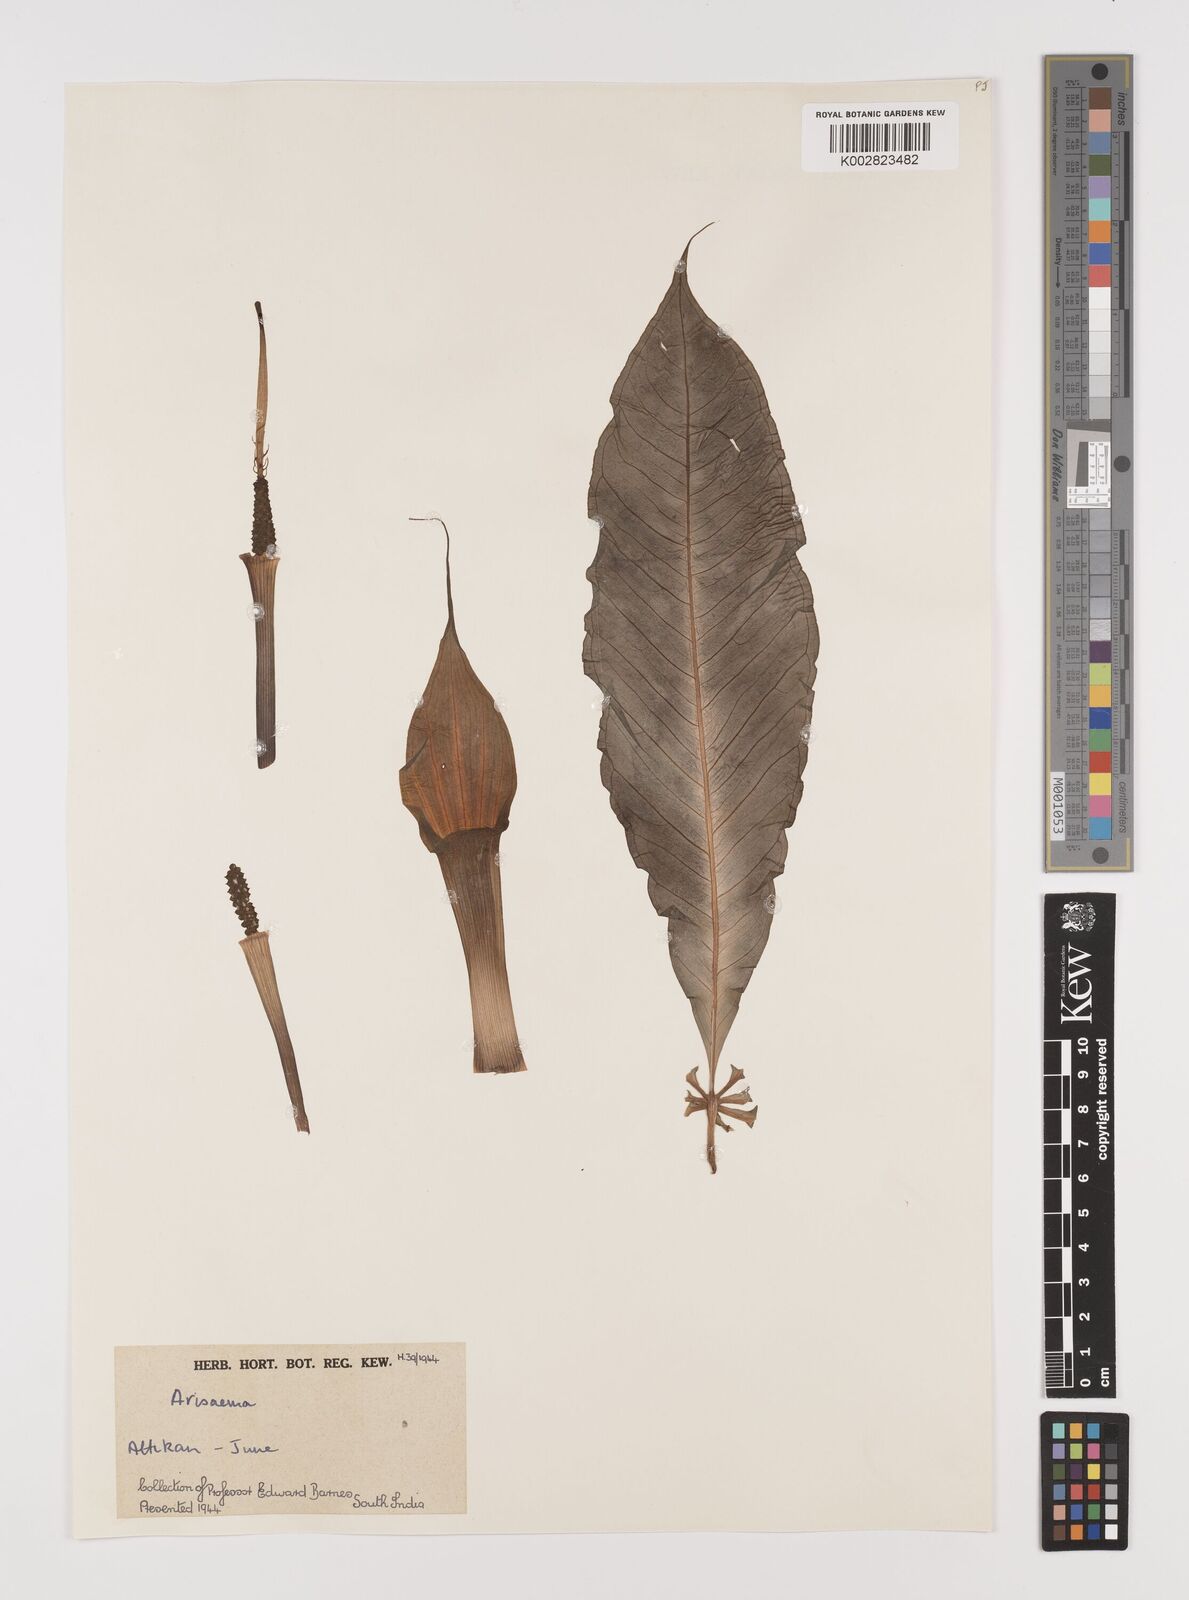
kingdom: Plantae
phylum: Tracheophyta
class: Liliopsida
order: Alismatales
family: Araceae
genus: Arisaema
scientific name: Arisaema
